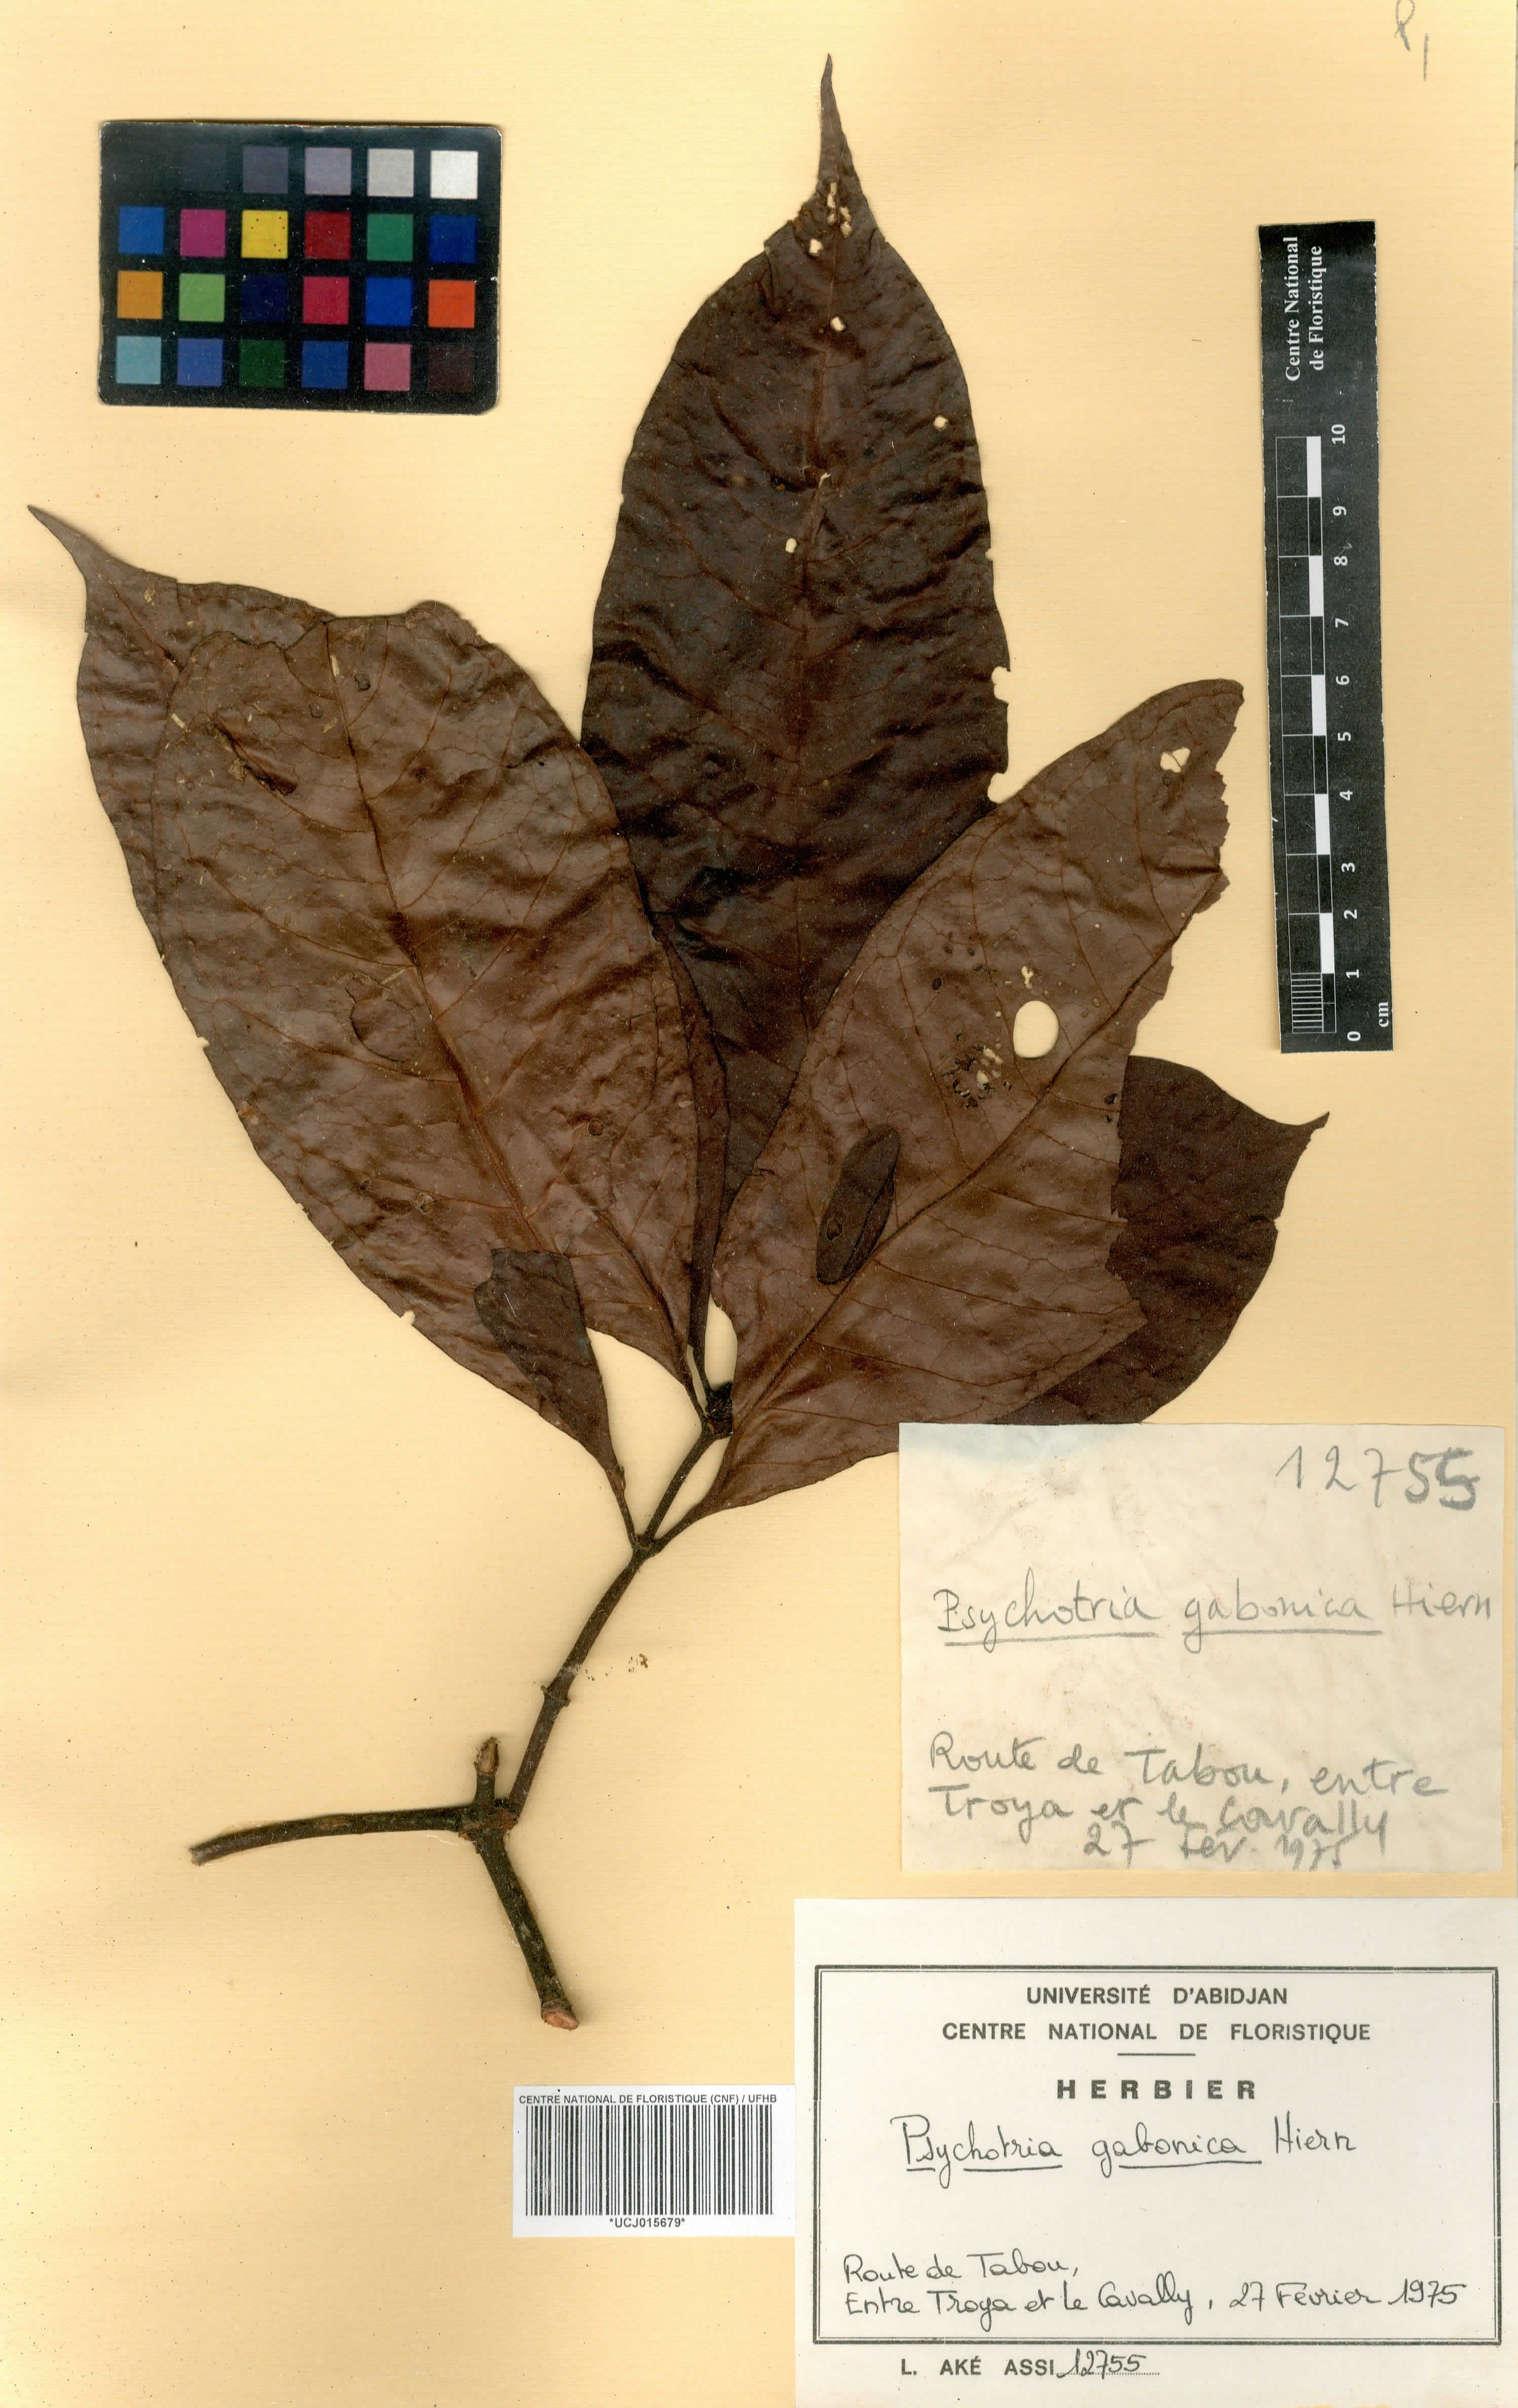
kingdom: Plantae
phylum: Tracheophyta
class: Magnoliopsida
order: Gentianales
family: Rubiaceae
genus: Psychotria
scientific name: Psychotria gabonica
